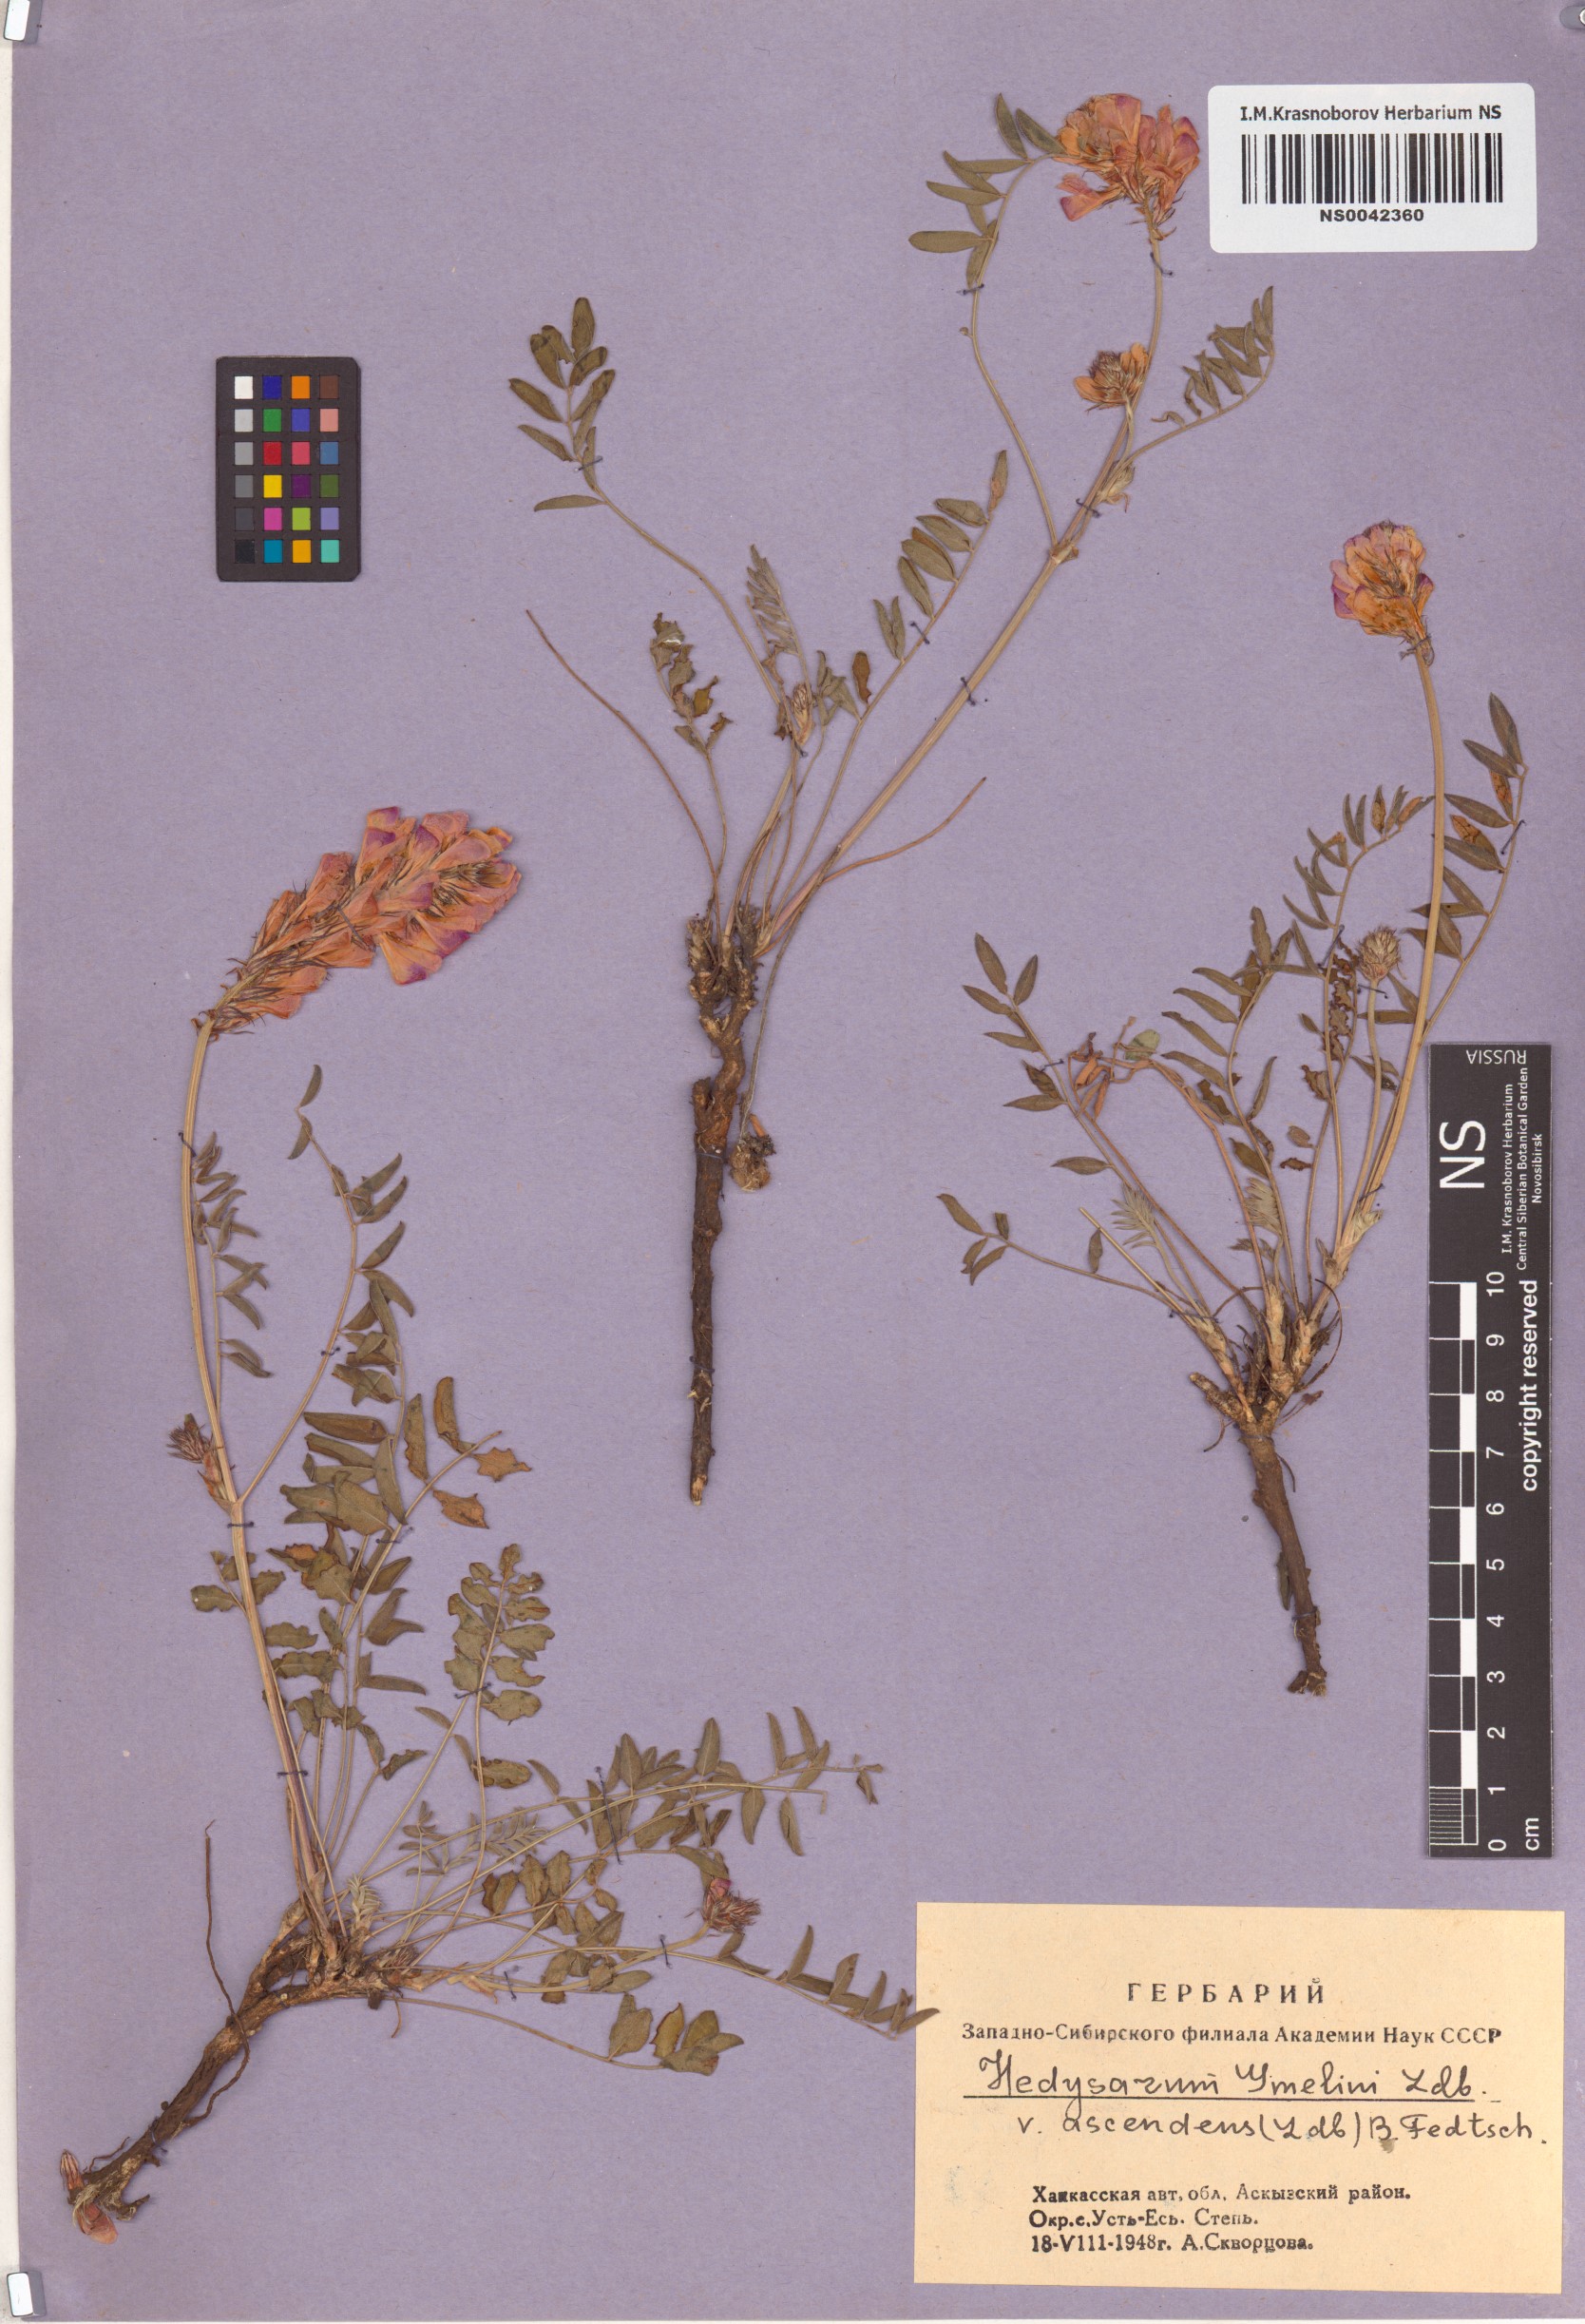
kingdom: Plantae
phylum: Tracheophyta
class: Magnoliopsida
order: Fabales
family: Fabaceae
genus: Hedysarum
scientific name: Hedysarum gmelinii
